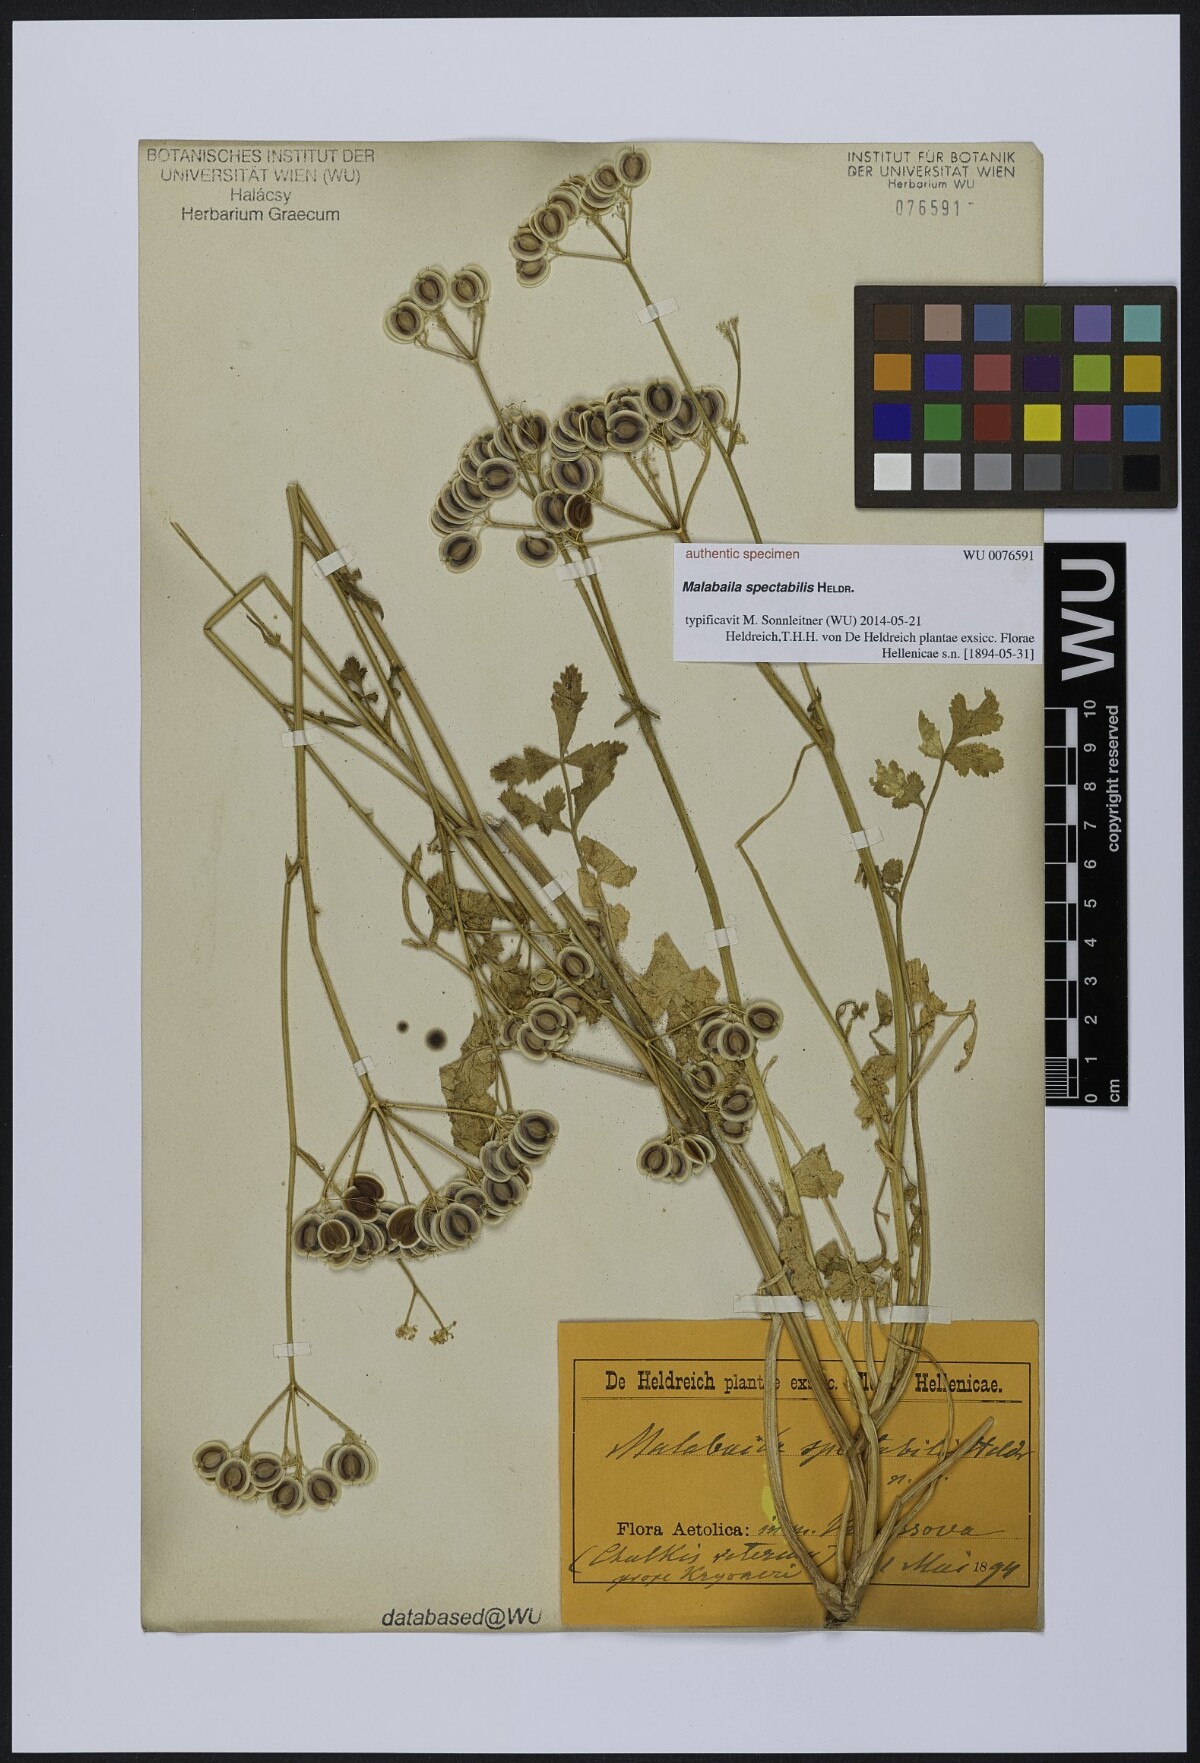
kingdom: Plantae
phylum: Tracheophyta
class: Magnoliopsida
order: Apiales
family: Apiaceae
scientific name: Apiaceae
